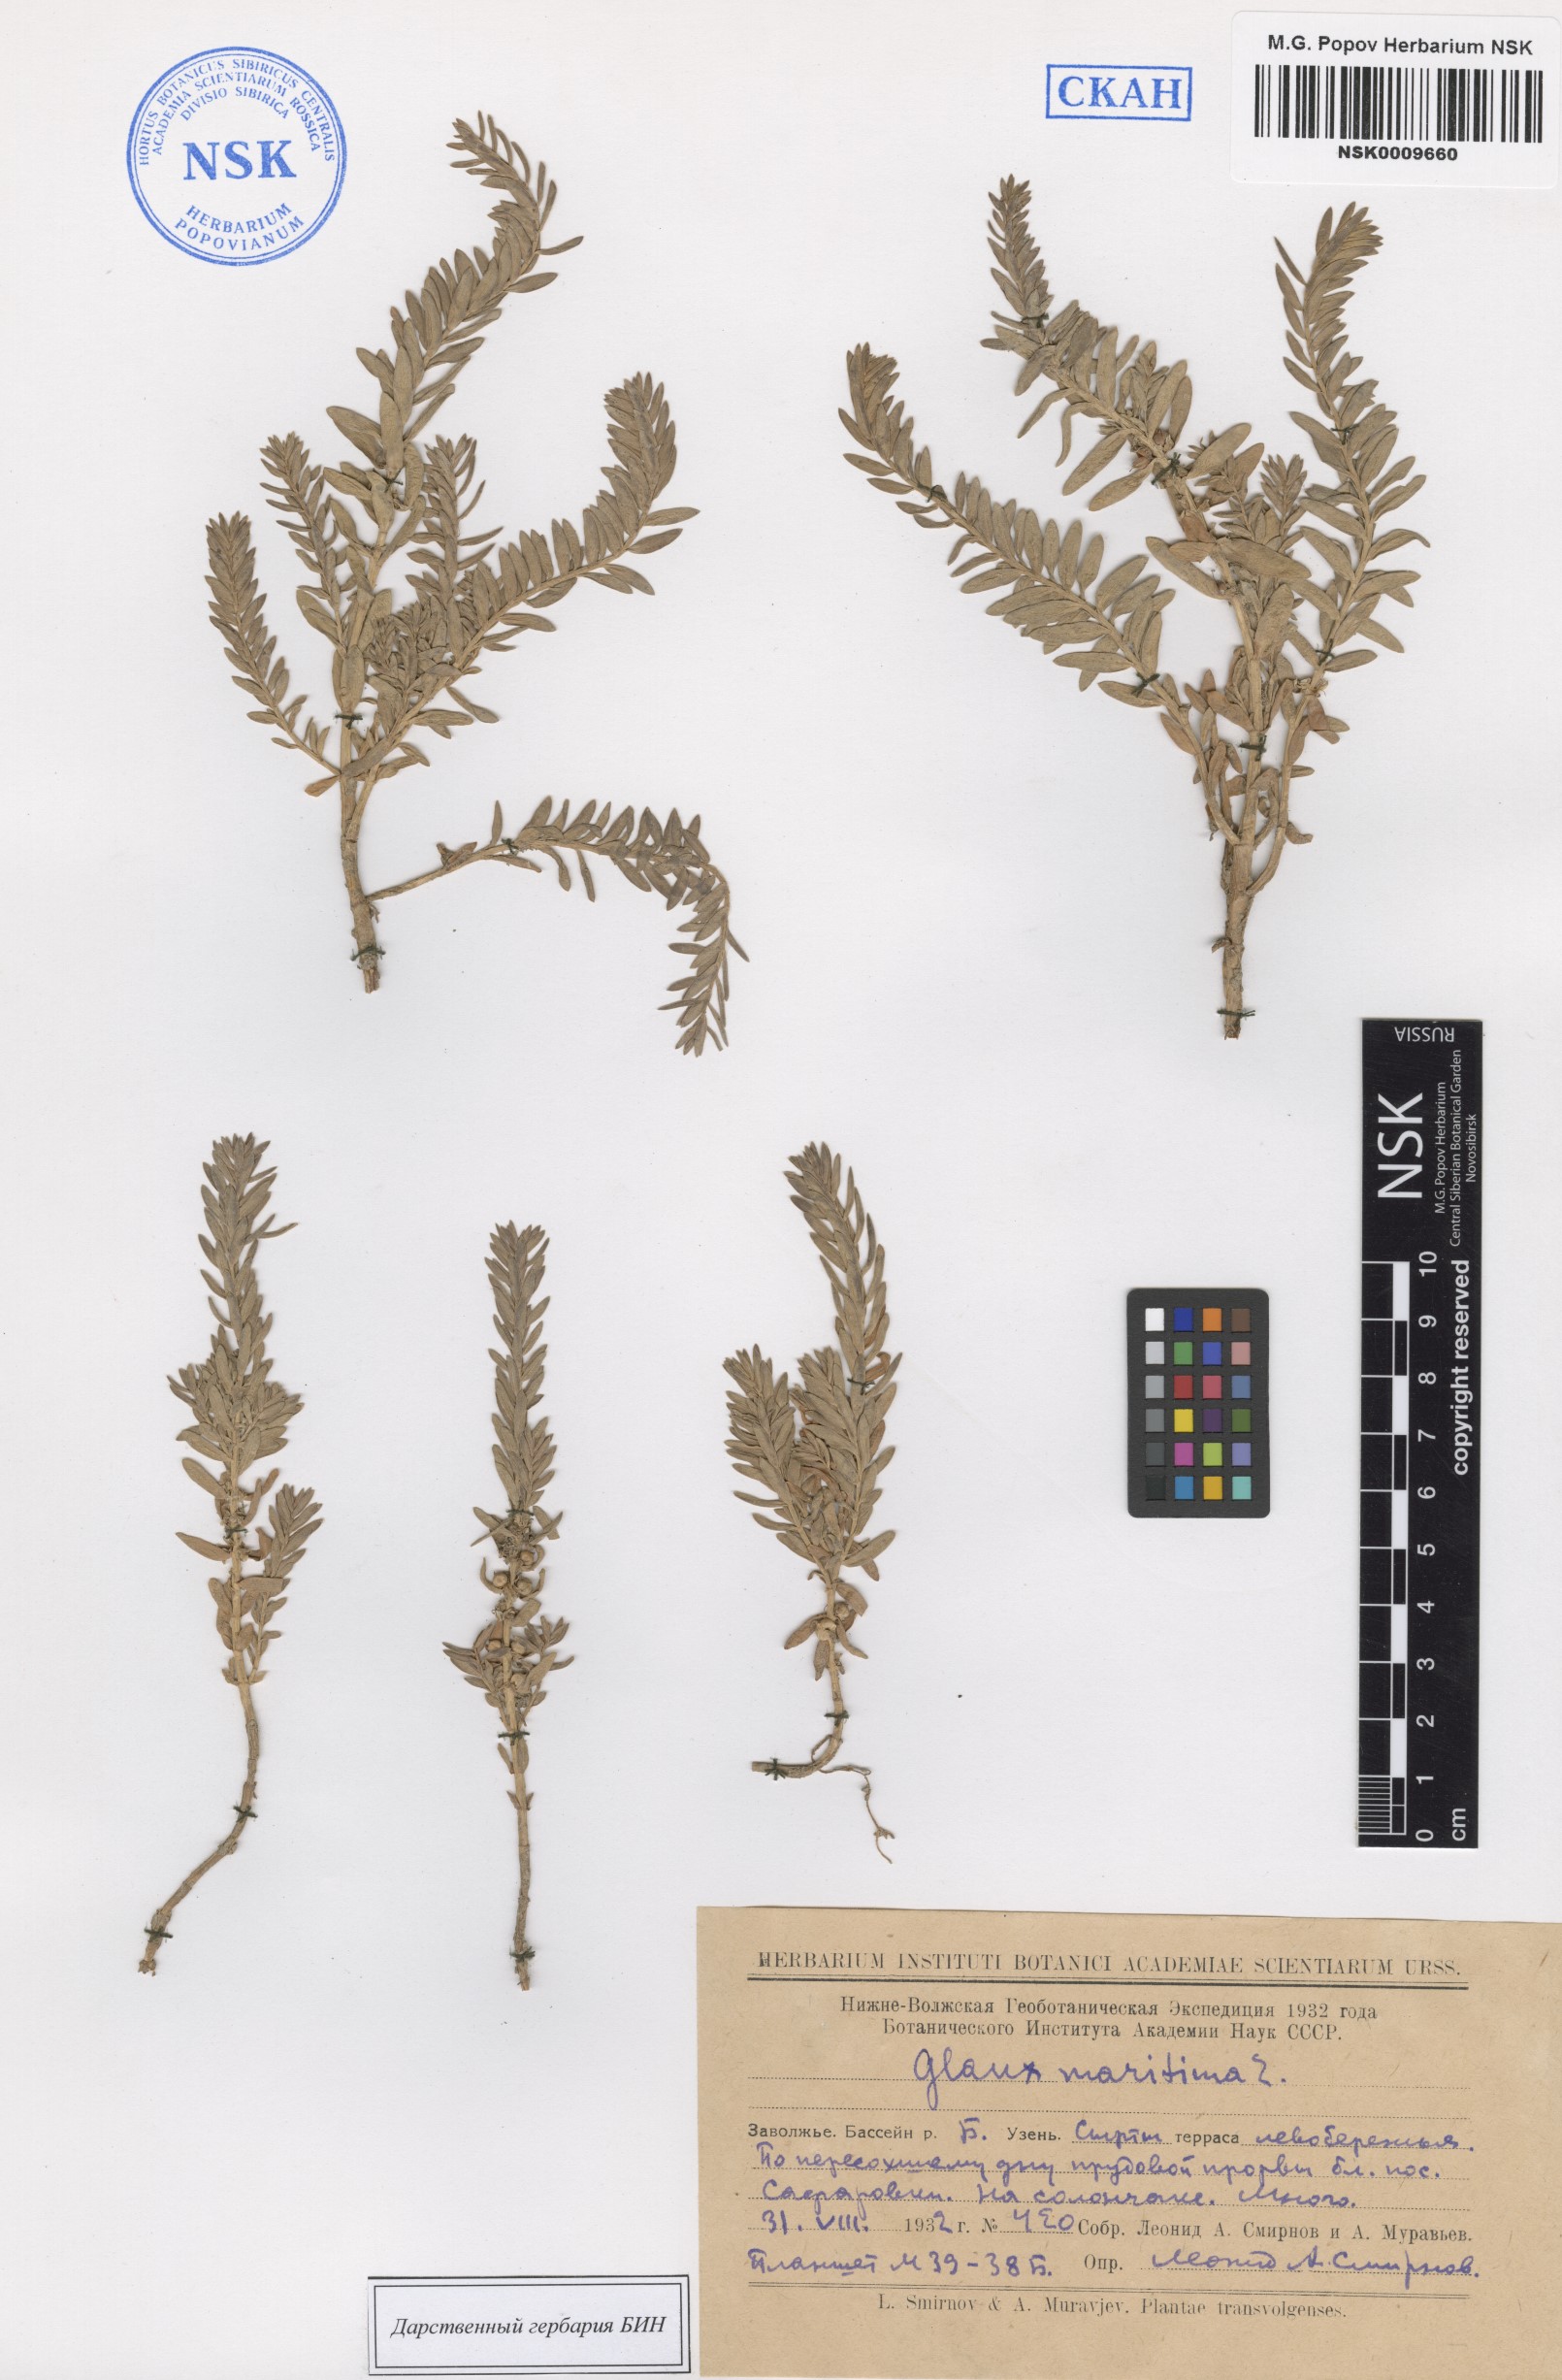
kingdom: Plantae
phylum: Tracheophyta
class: Magnoliopsida
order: Ericales
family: Primulaceae
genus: Lysimachia
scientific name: Lysimachia maritima
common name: Sea milkwort
